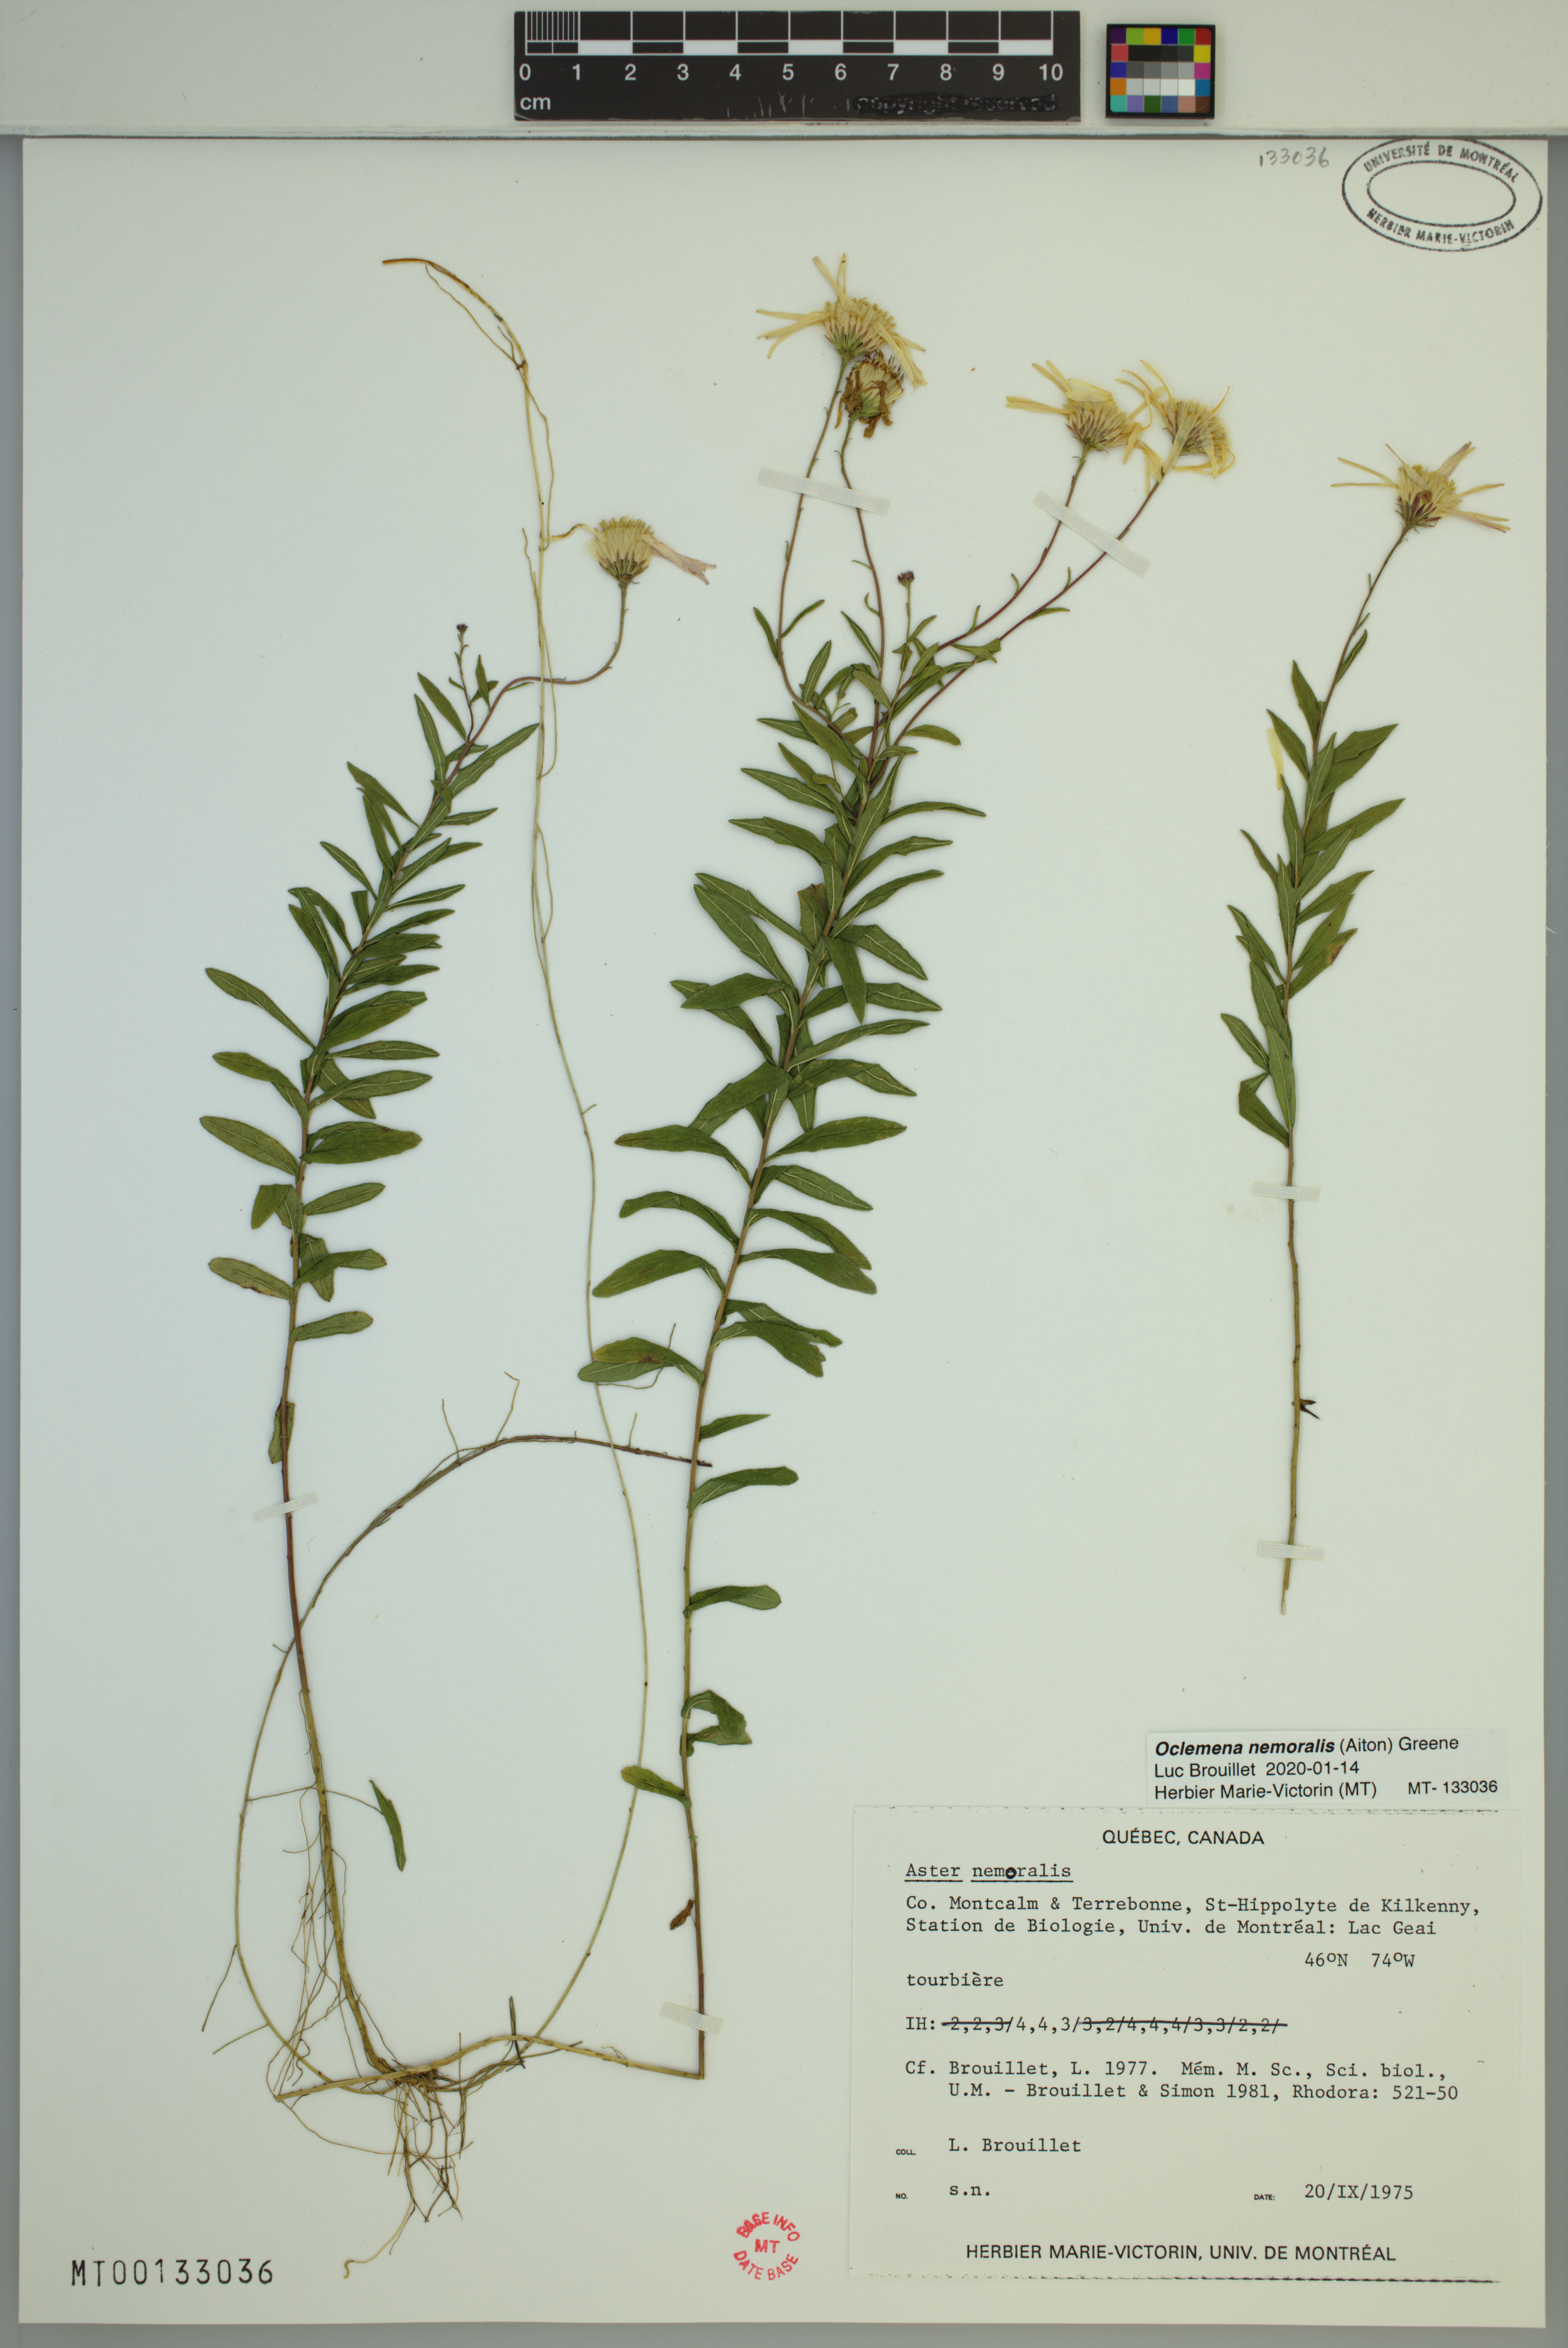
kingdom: Plantae
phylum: Tracheophyta
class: Magnoliopsida
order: Asterales
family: Asteraceae
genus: Oclemena
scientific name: Oclemena nemoralis
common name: Bog aster
